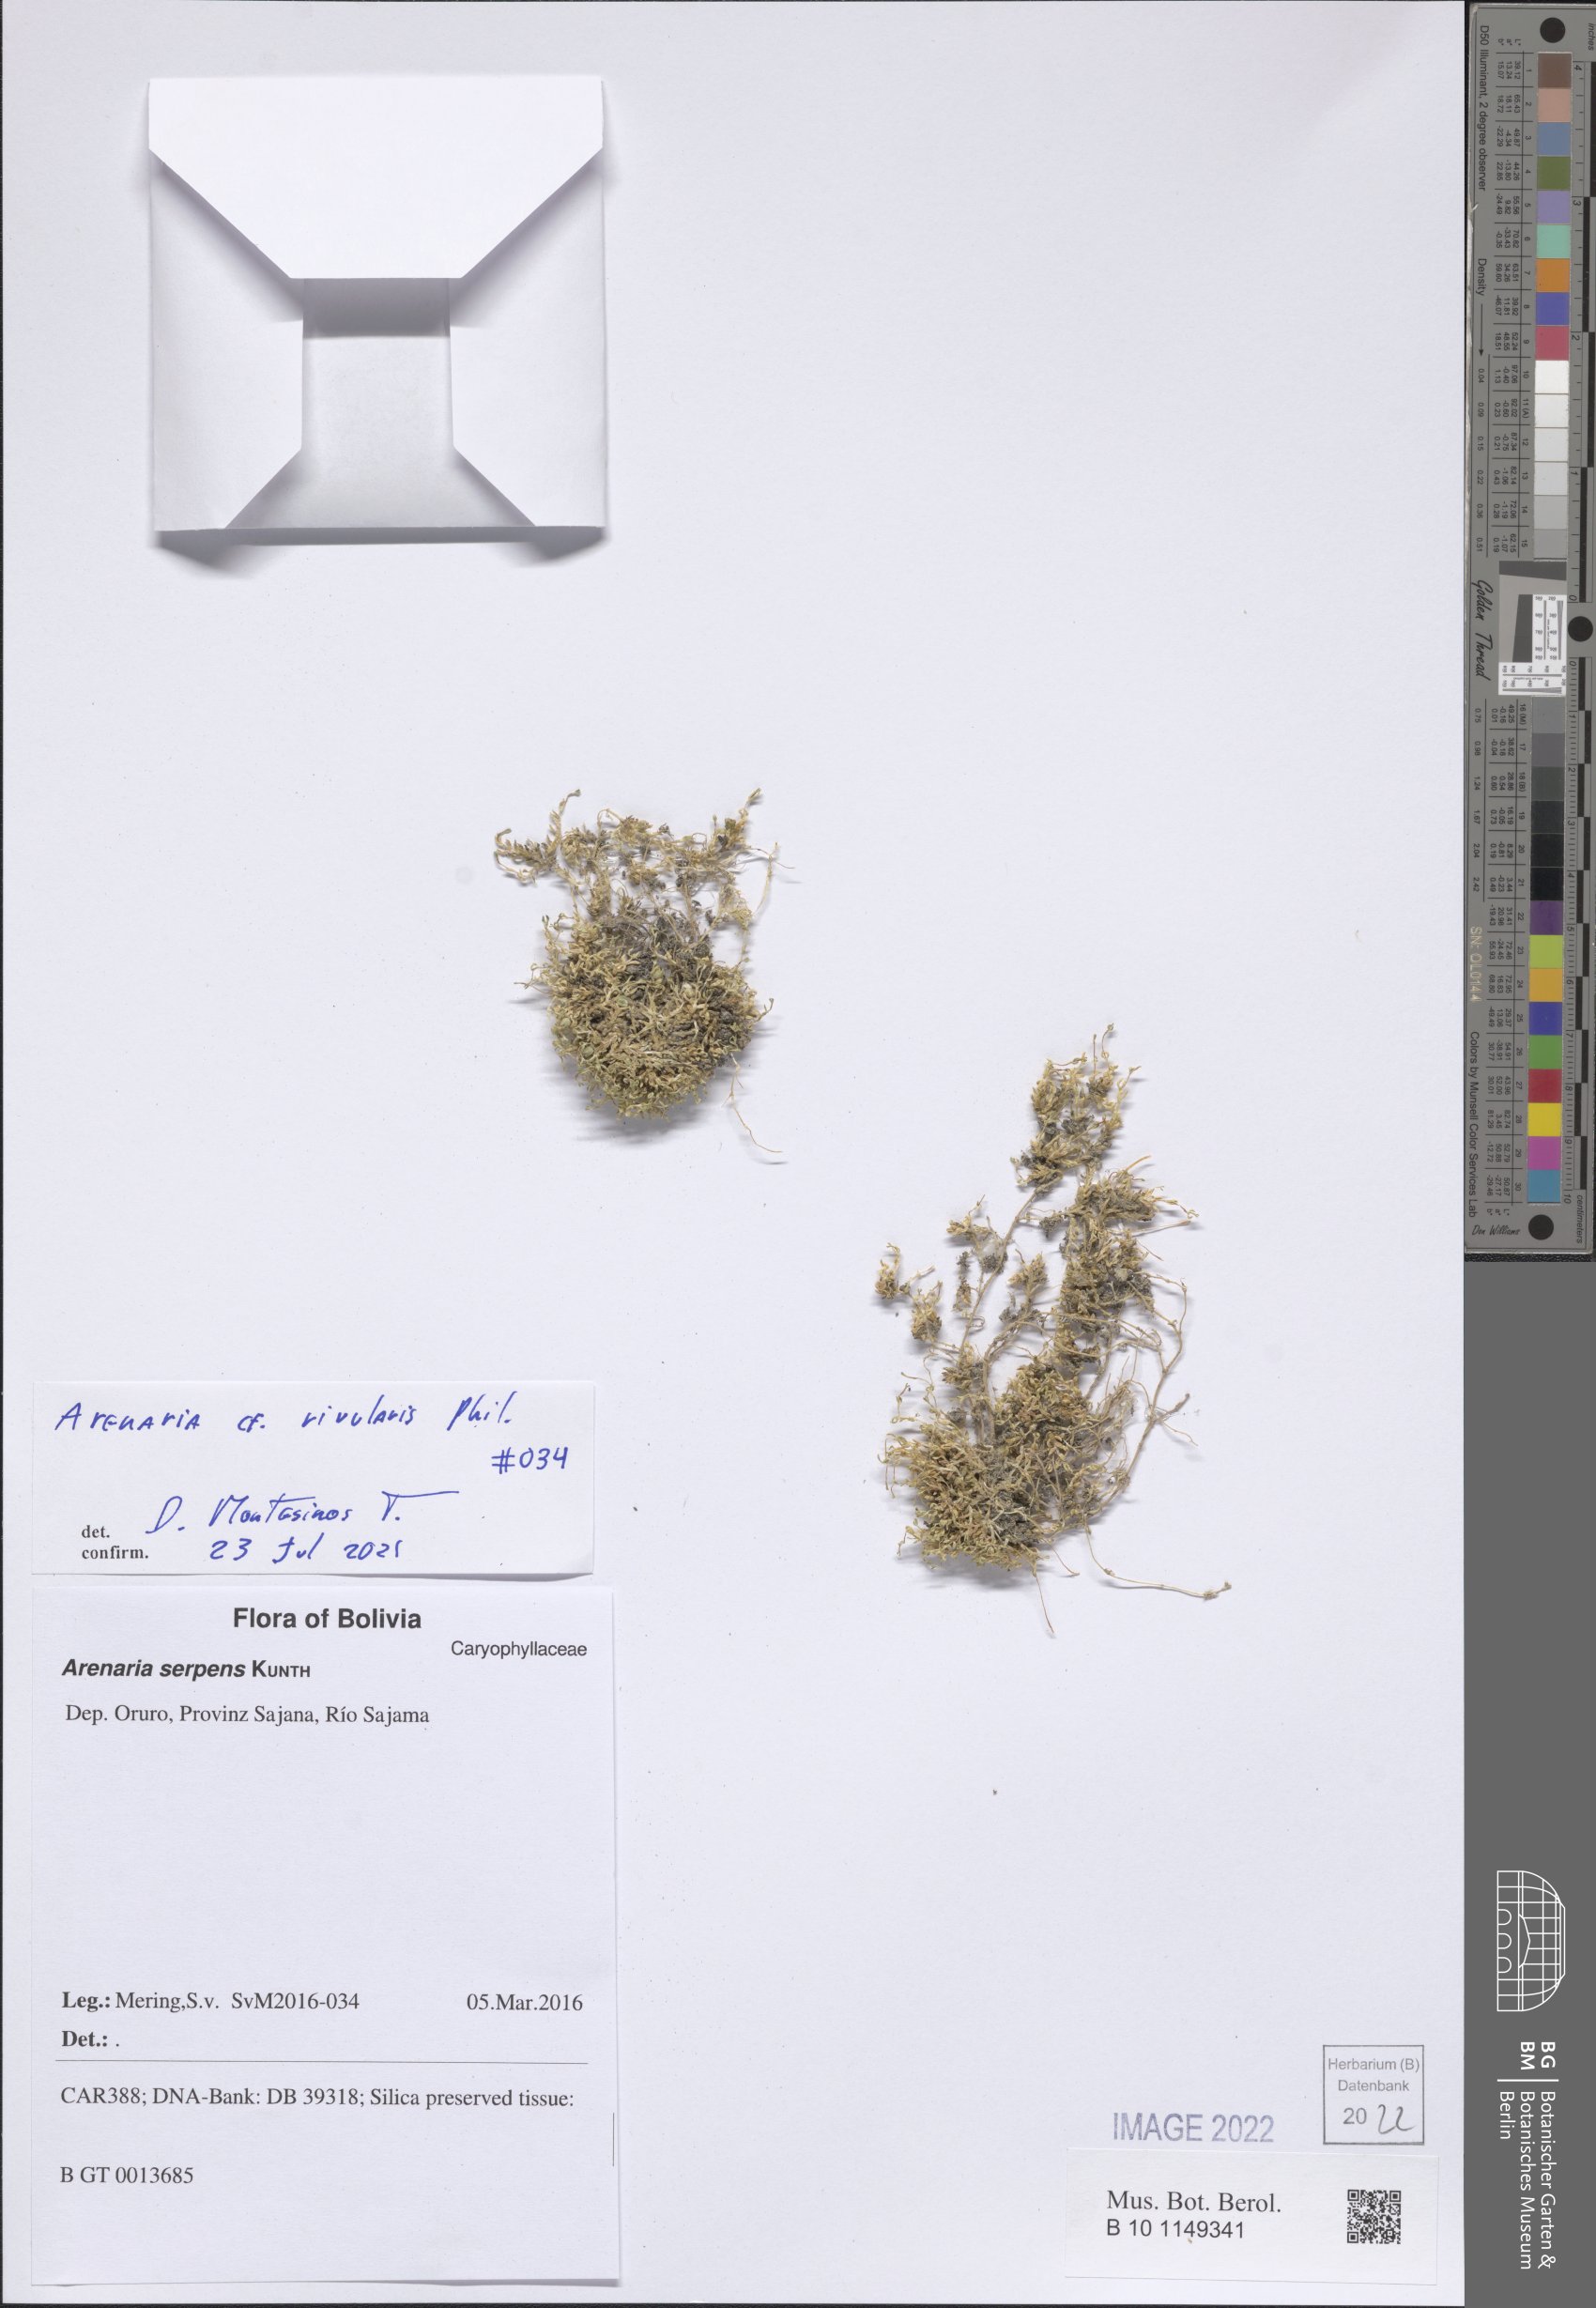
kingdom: Plantae
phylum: Tracheophyta
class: Magnoliopsida
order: Caryophyllales
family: Caryophyllaceae
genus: Arenaria
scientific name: Arenaria rivularis
